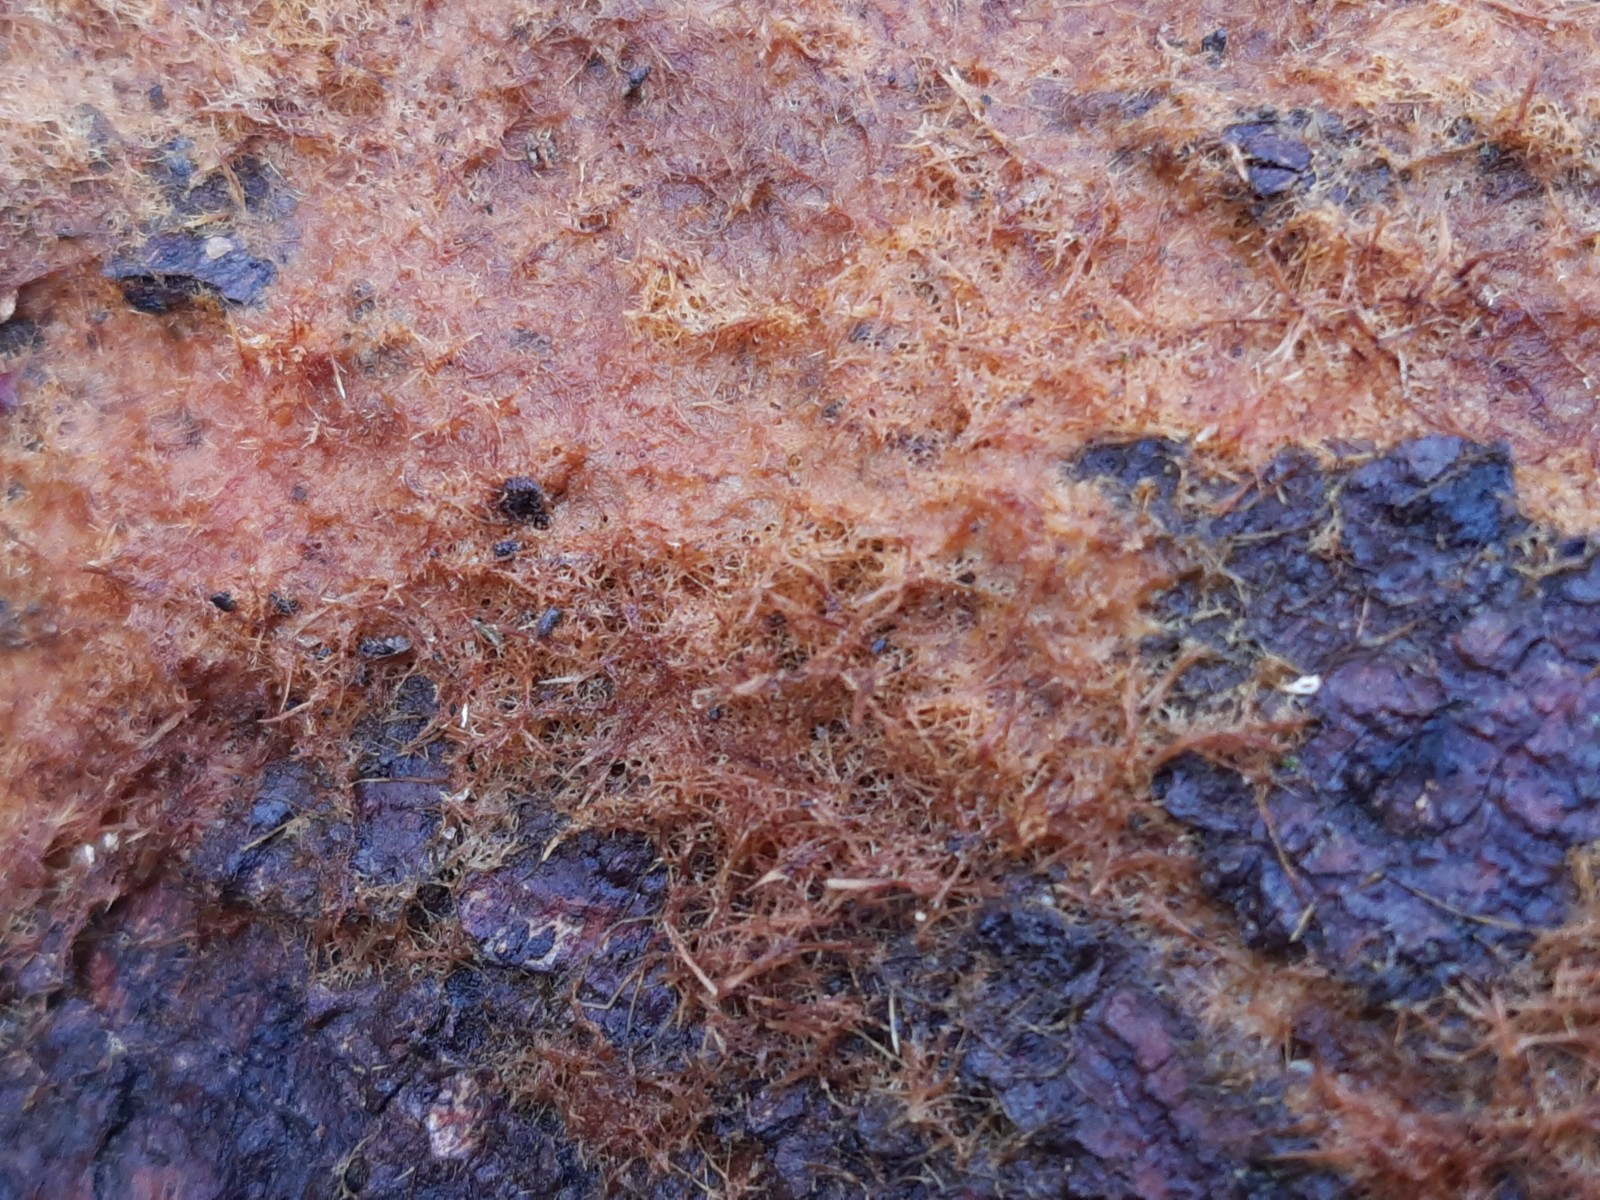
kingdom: Fungi
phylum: Basidiomycota
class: Agaricomycetes
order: Agaricales
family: Psathyrellaceae
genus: Ozonium
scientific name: Ozonium
